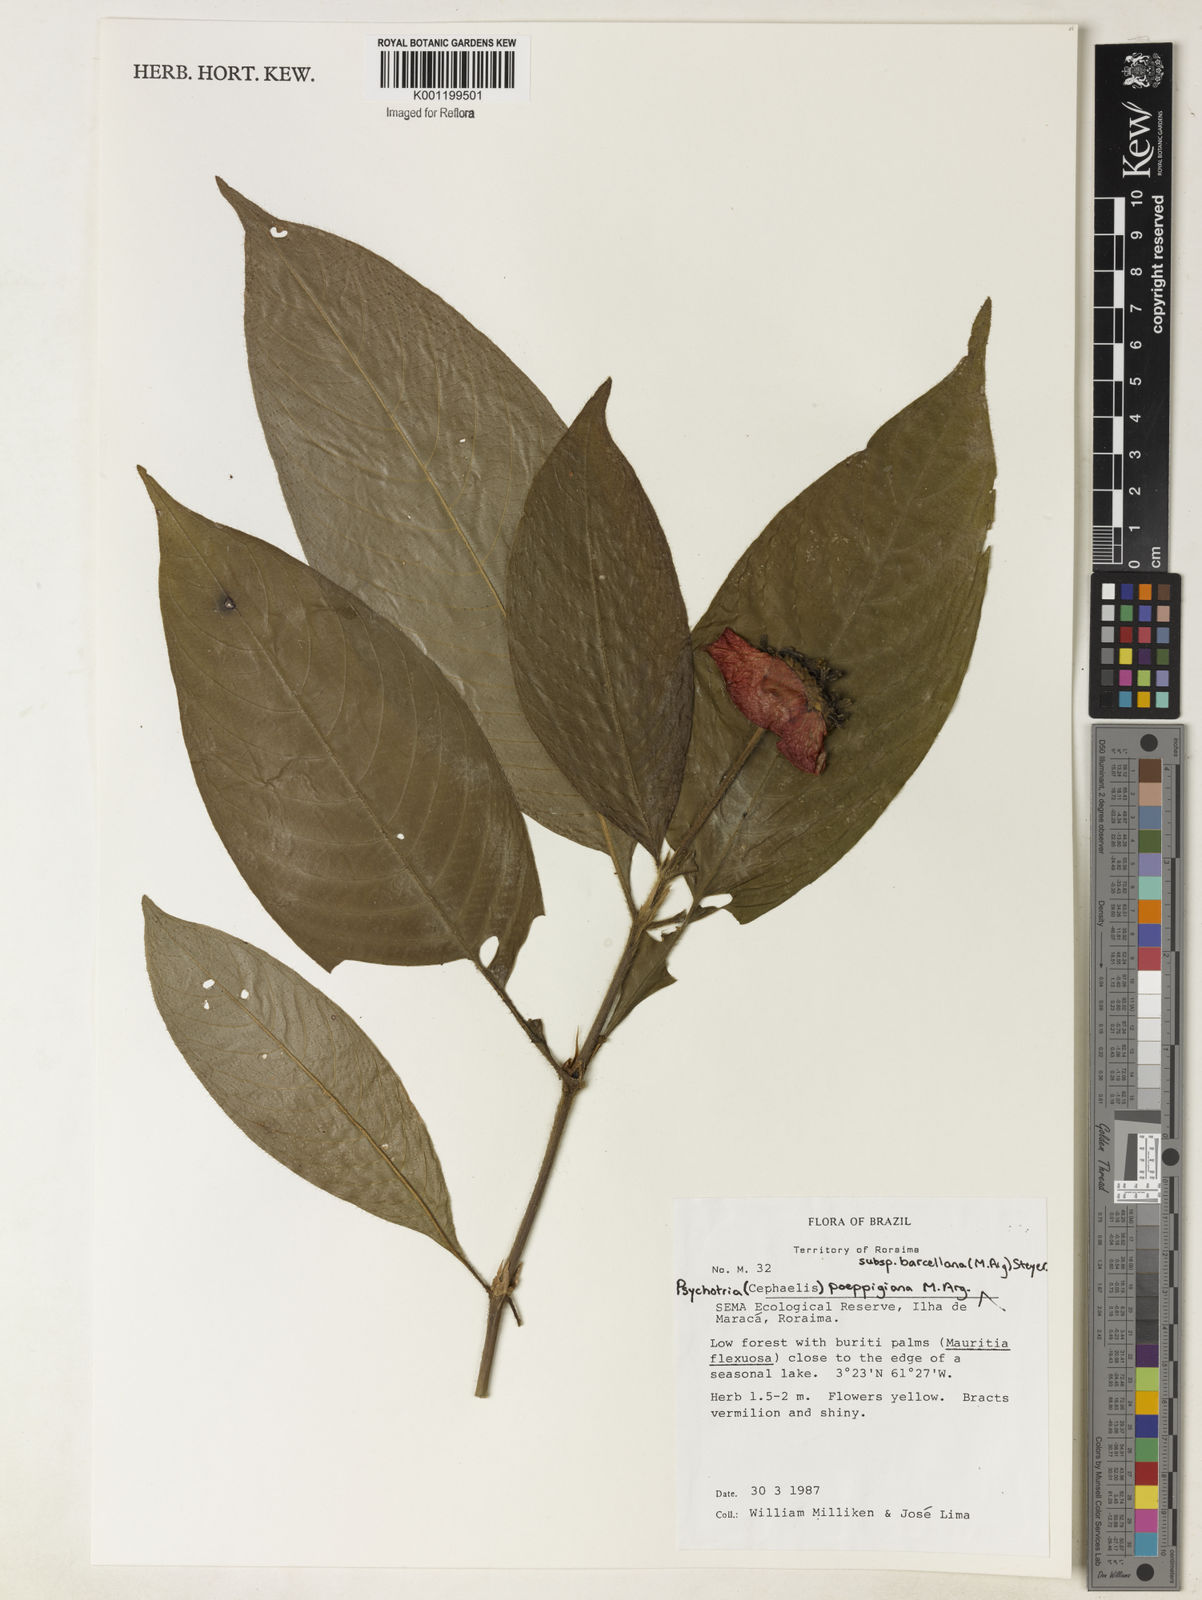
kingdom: Plantae
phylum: Tracheophyta
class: Magnoliopsida
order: Gentianales
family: Rubiaceae
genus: Psychotria
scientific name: Psychotria
